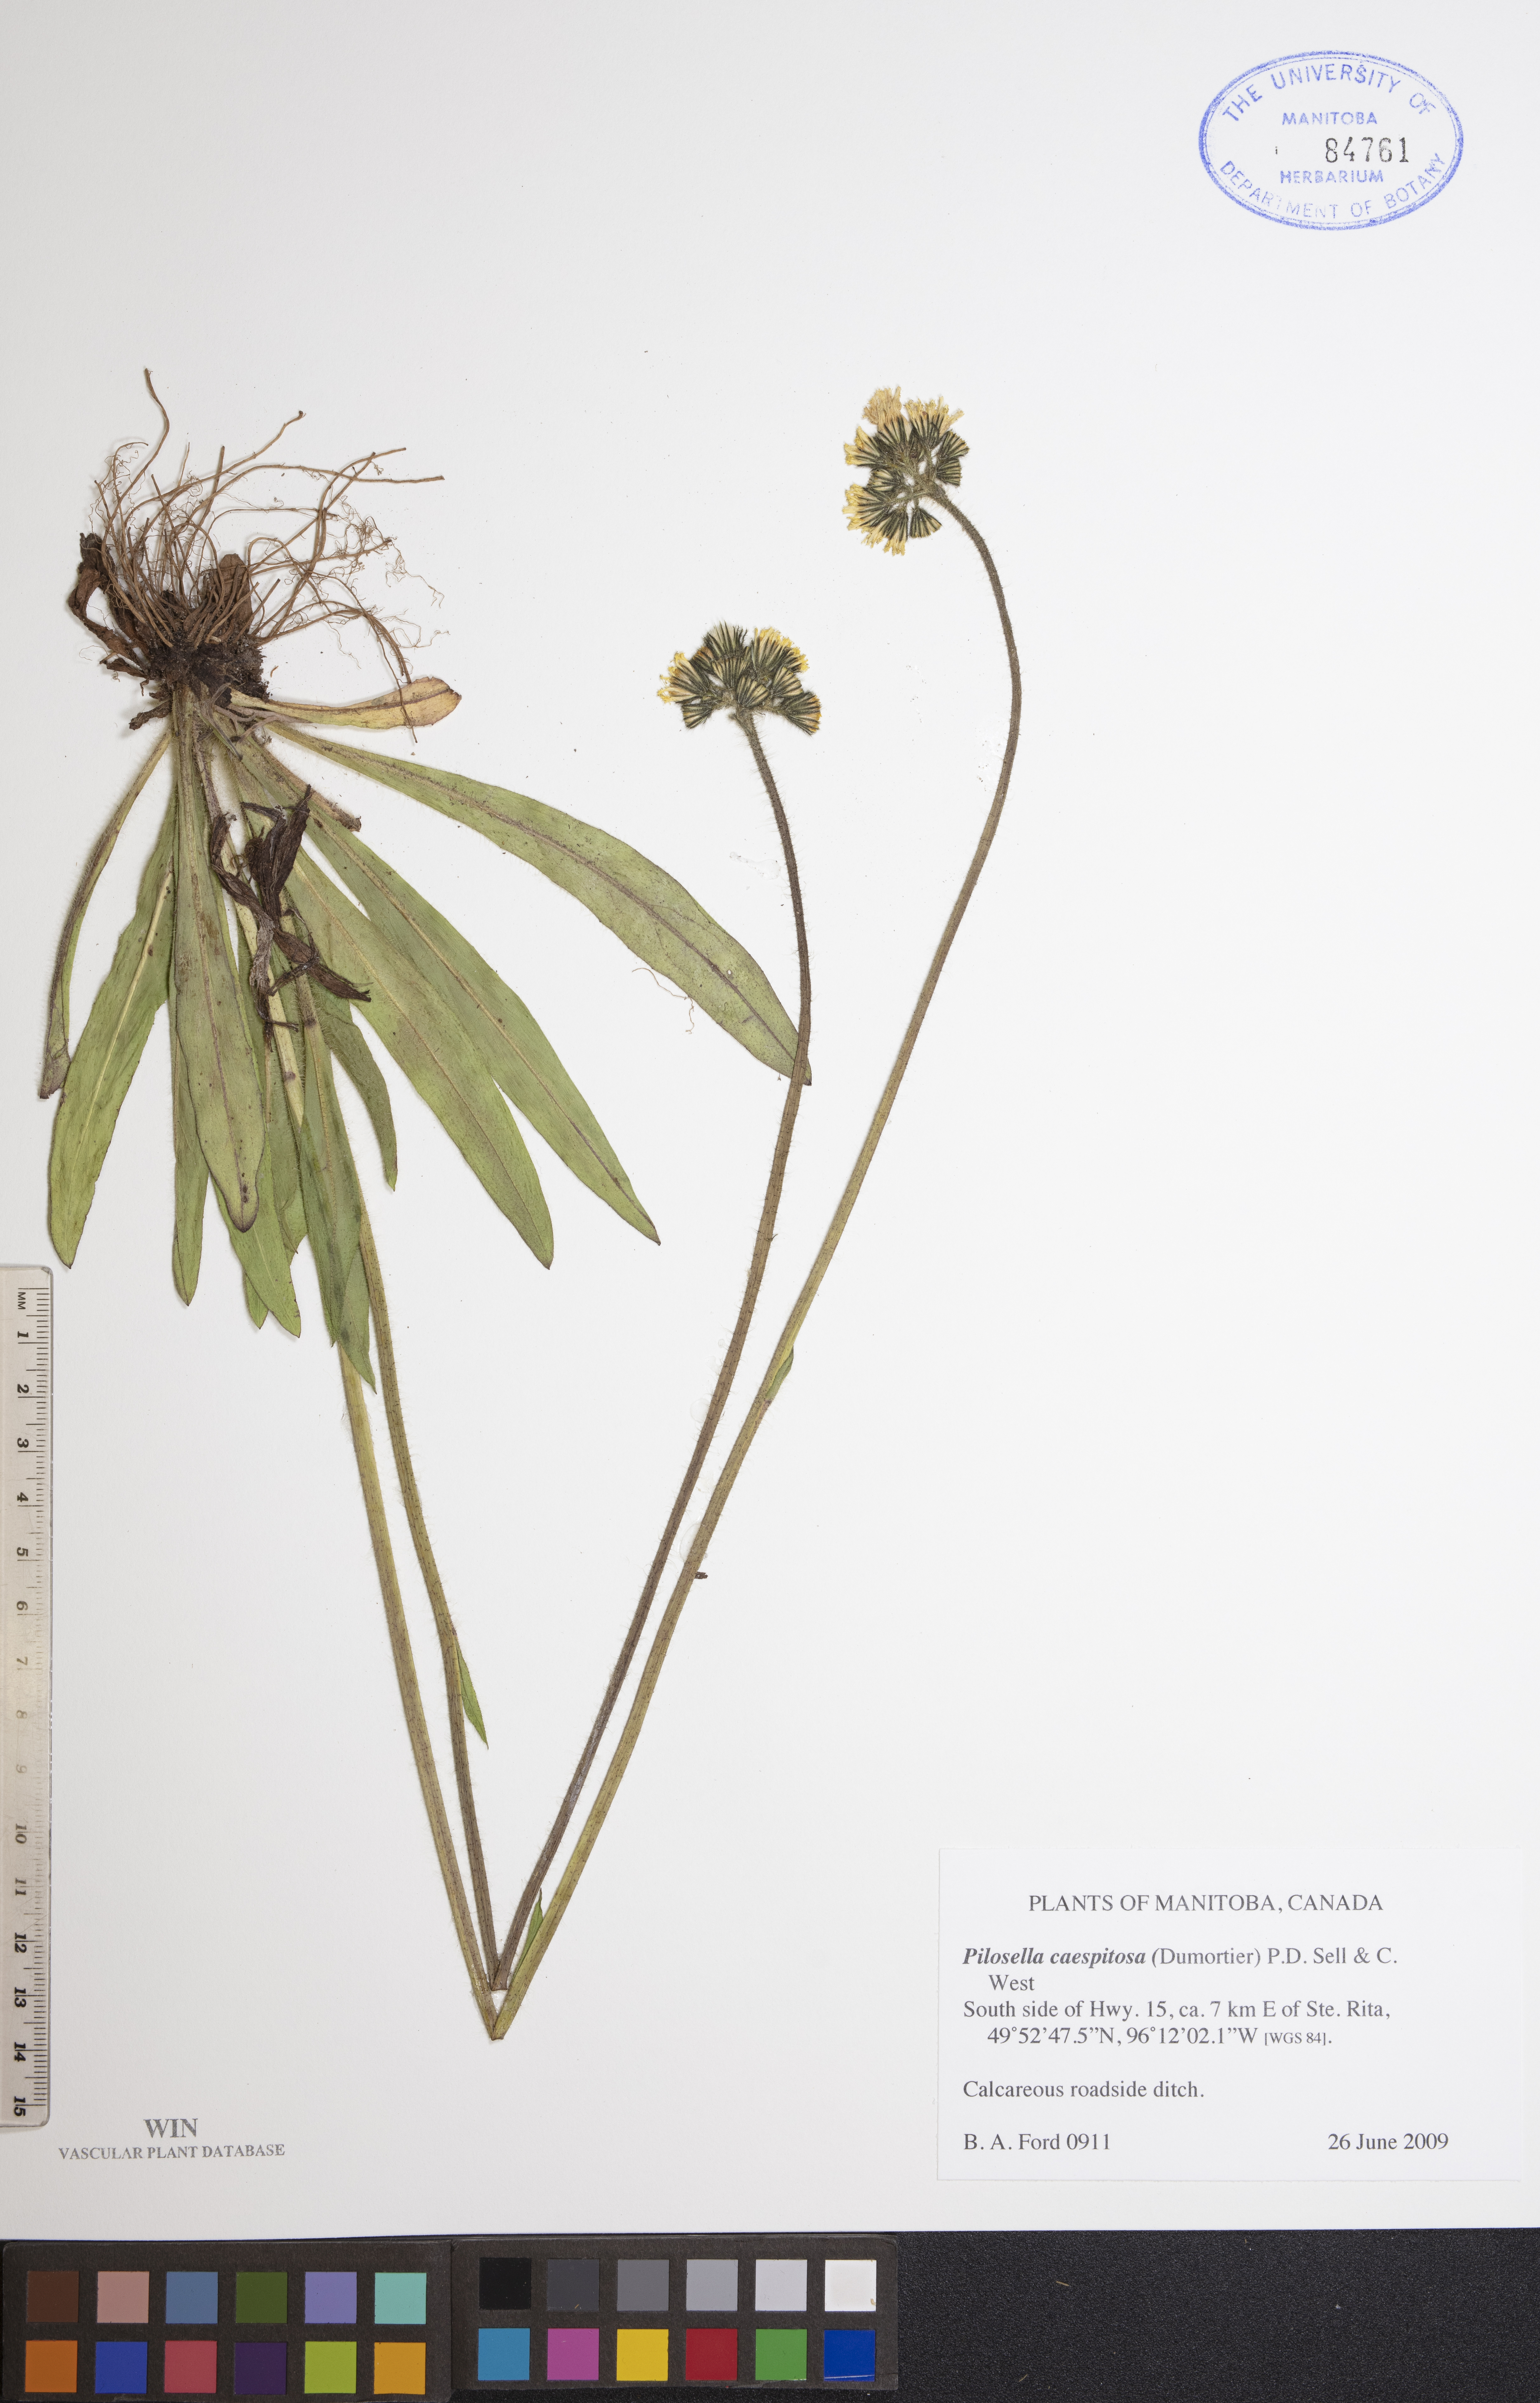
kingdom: Plantae
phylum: Tracheophyta
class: Magnoliopsida
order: Asterales
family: Asteraceae
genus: Pilosella
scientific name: Pilosella caespitosa
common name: Yellow fox-and-cubs
